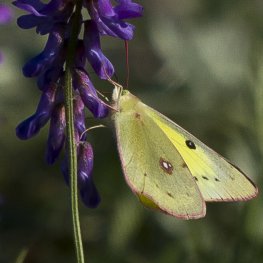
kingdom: Animalia
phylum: Arthropoda
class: Insecta
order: Lepidoptera
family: Pieridae
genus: Colias
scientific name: Colias philodice
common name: Clouded Sulphur
